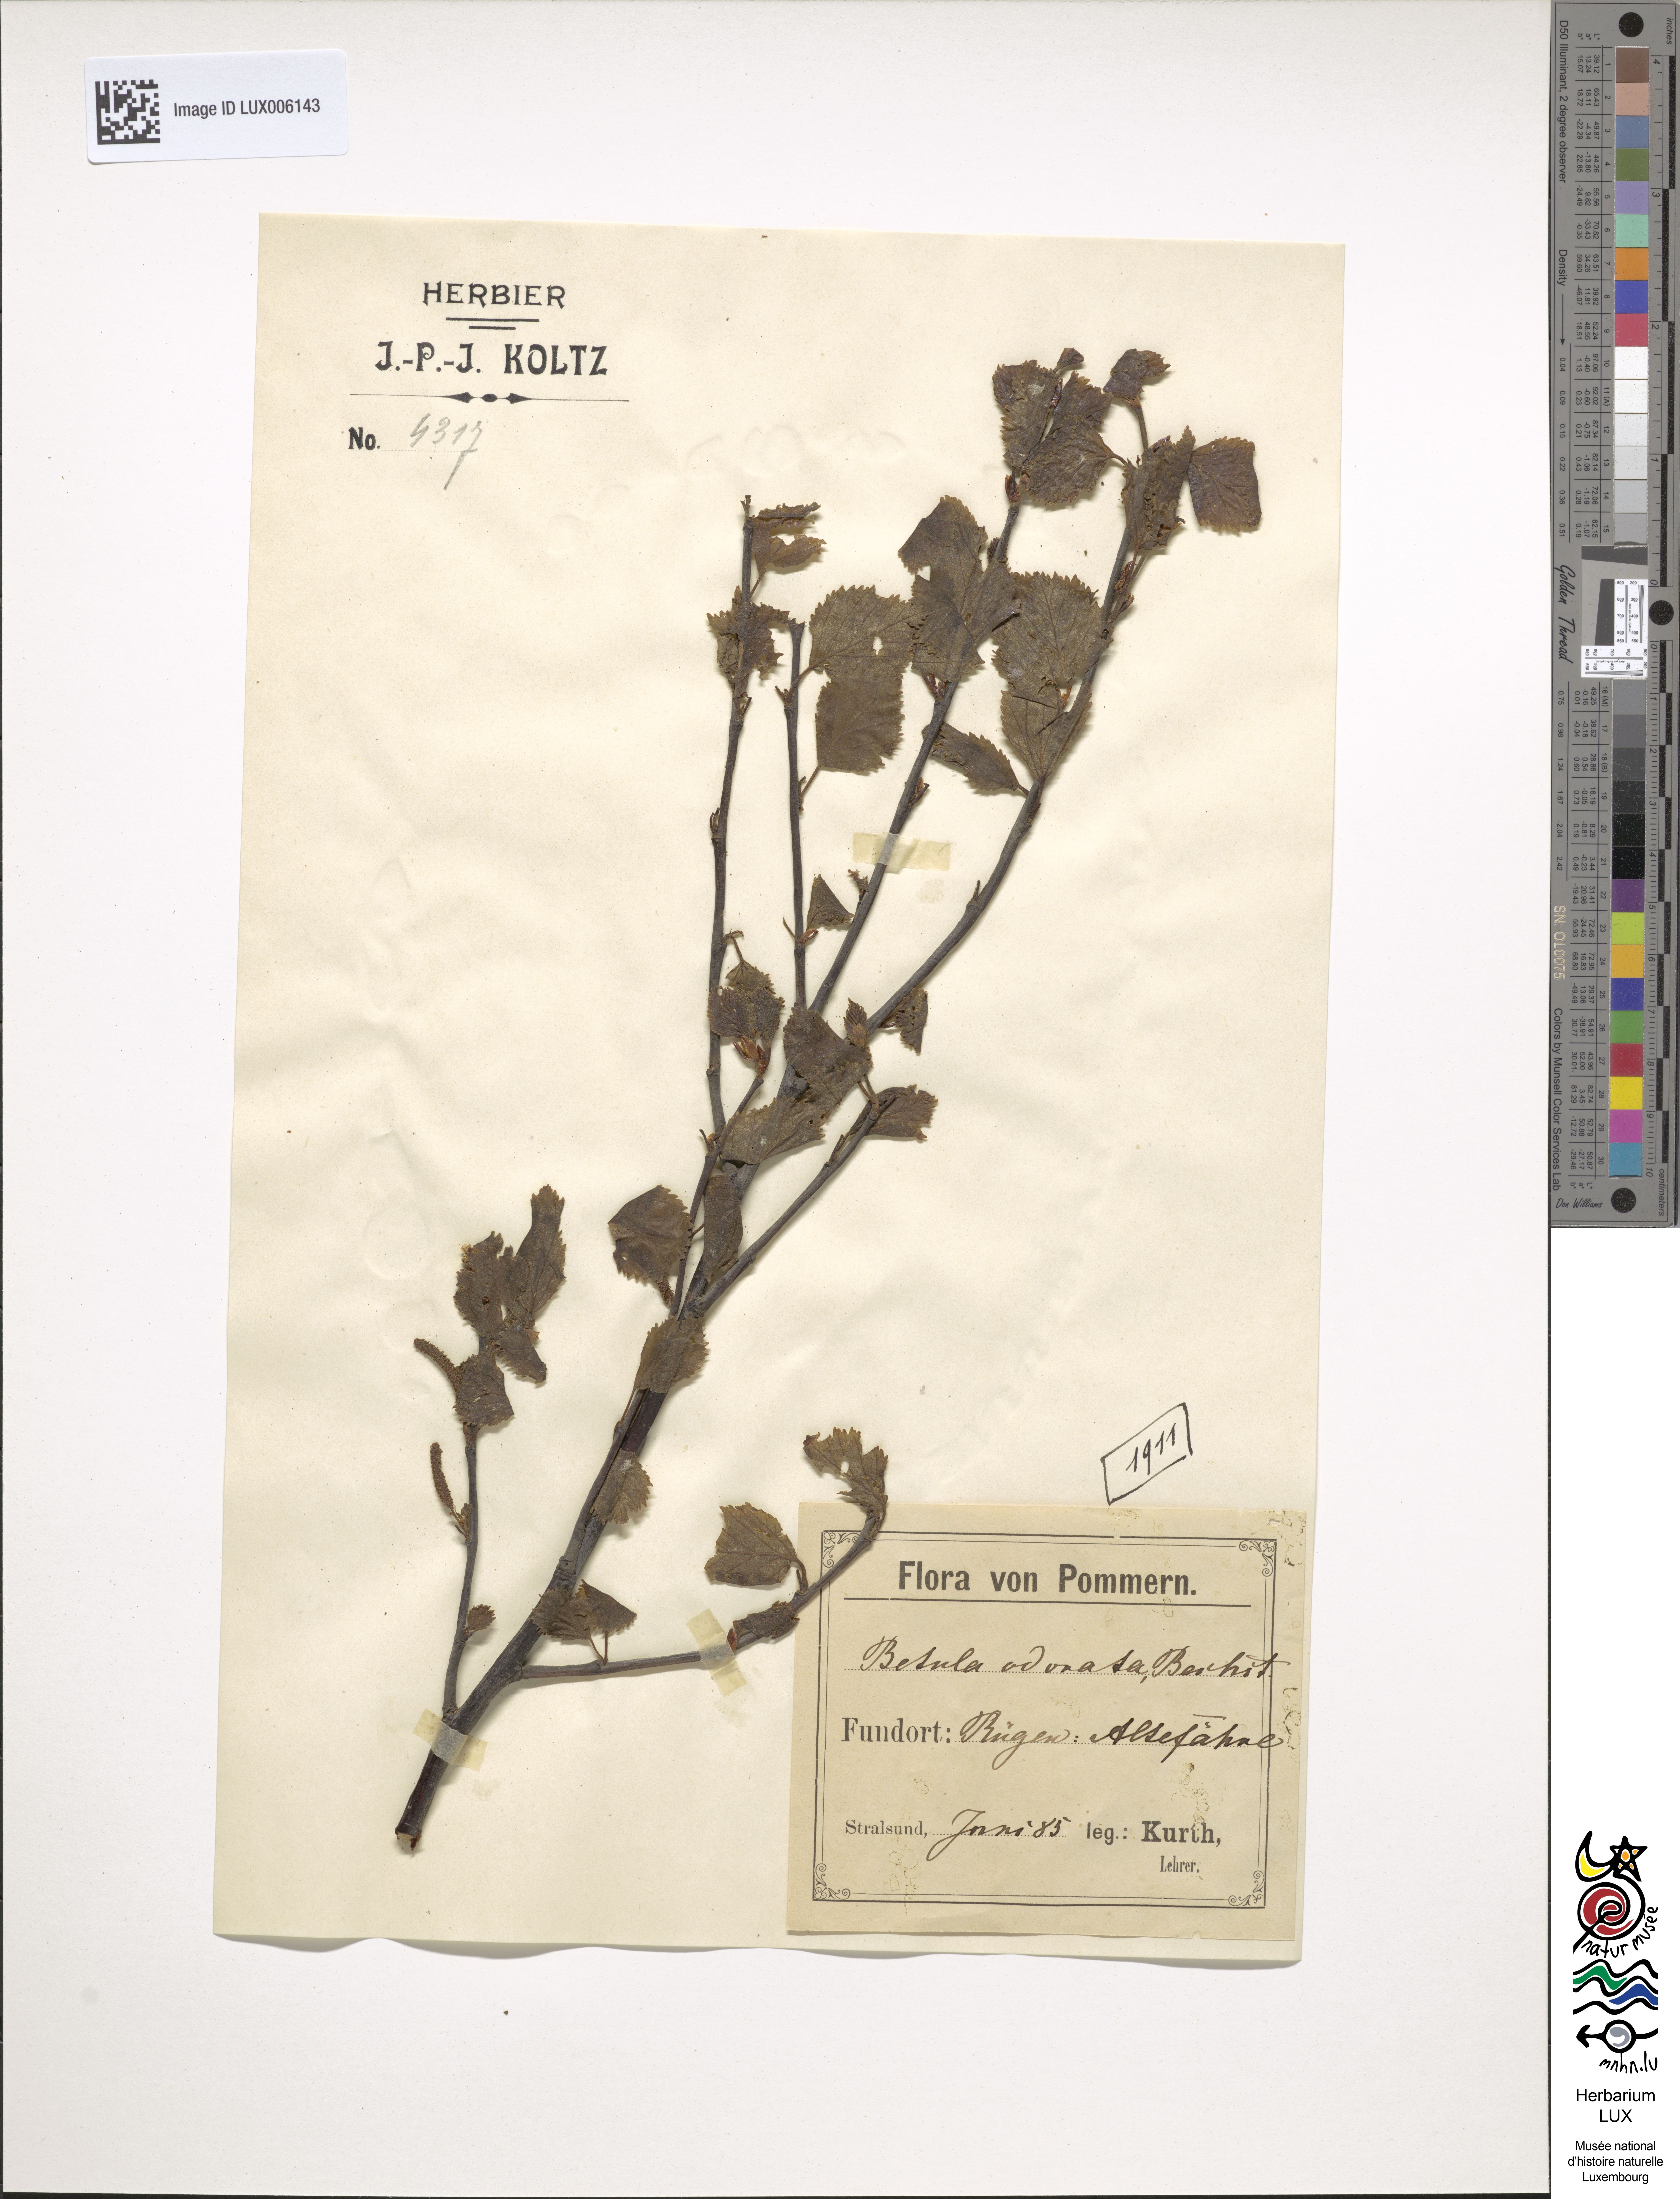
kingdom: Plantae
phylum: Tracheophyta
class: Magnoliopsida
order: Fagales
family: Betulaceae
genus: Betula
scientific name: Betula pubescens
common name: Downy birch
